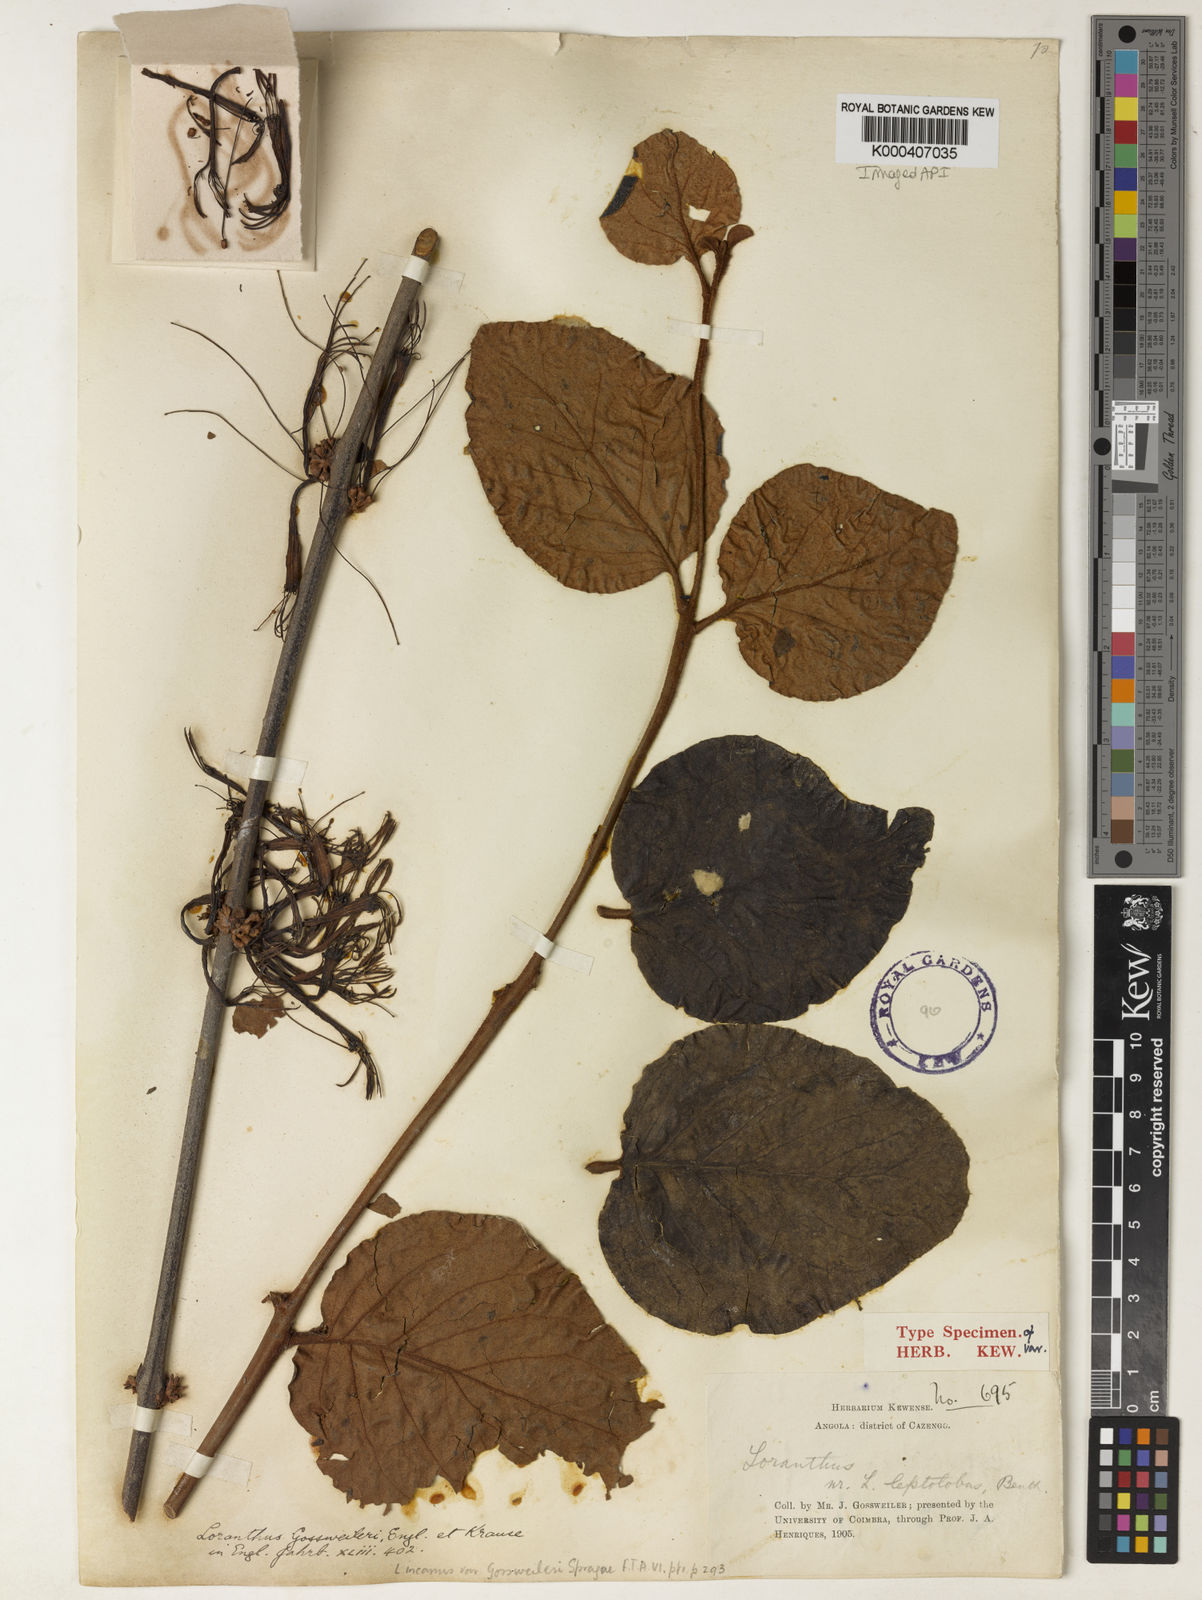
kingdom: Plantae
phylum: Tracheophyta
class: Magnoliopsida
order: Santalales
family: Loranthaceae
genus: Phragmanthera
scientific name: Phragmanthera capitata
